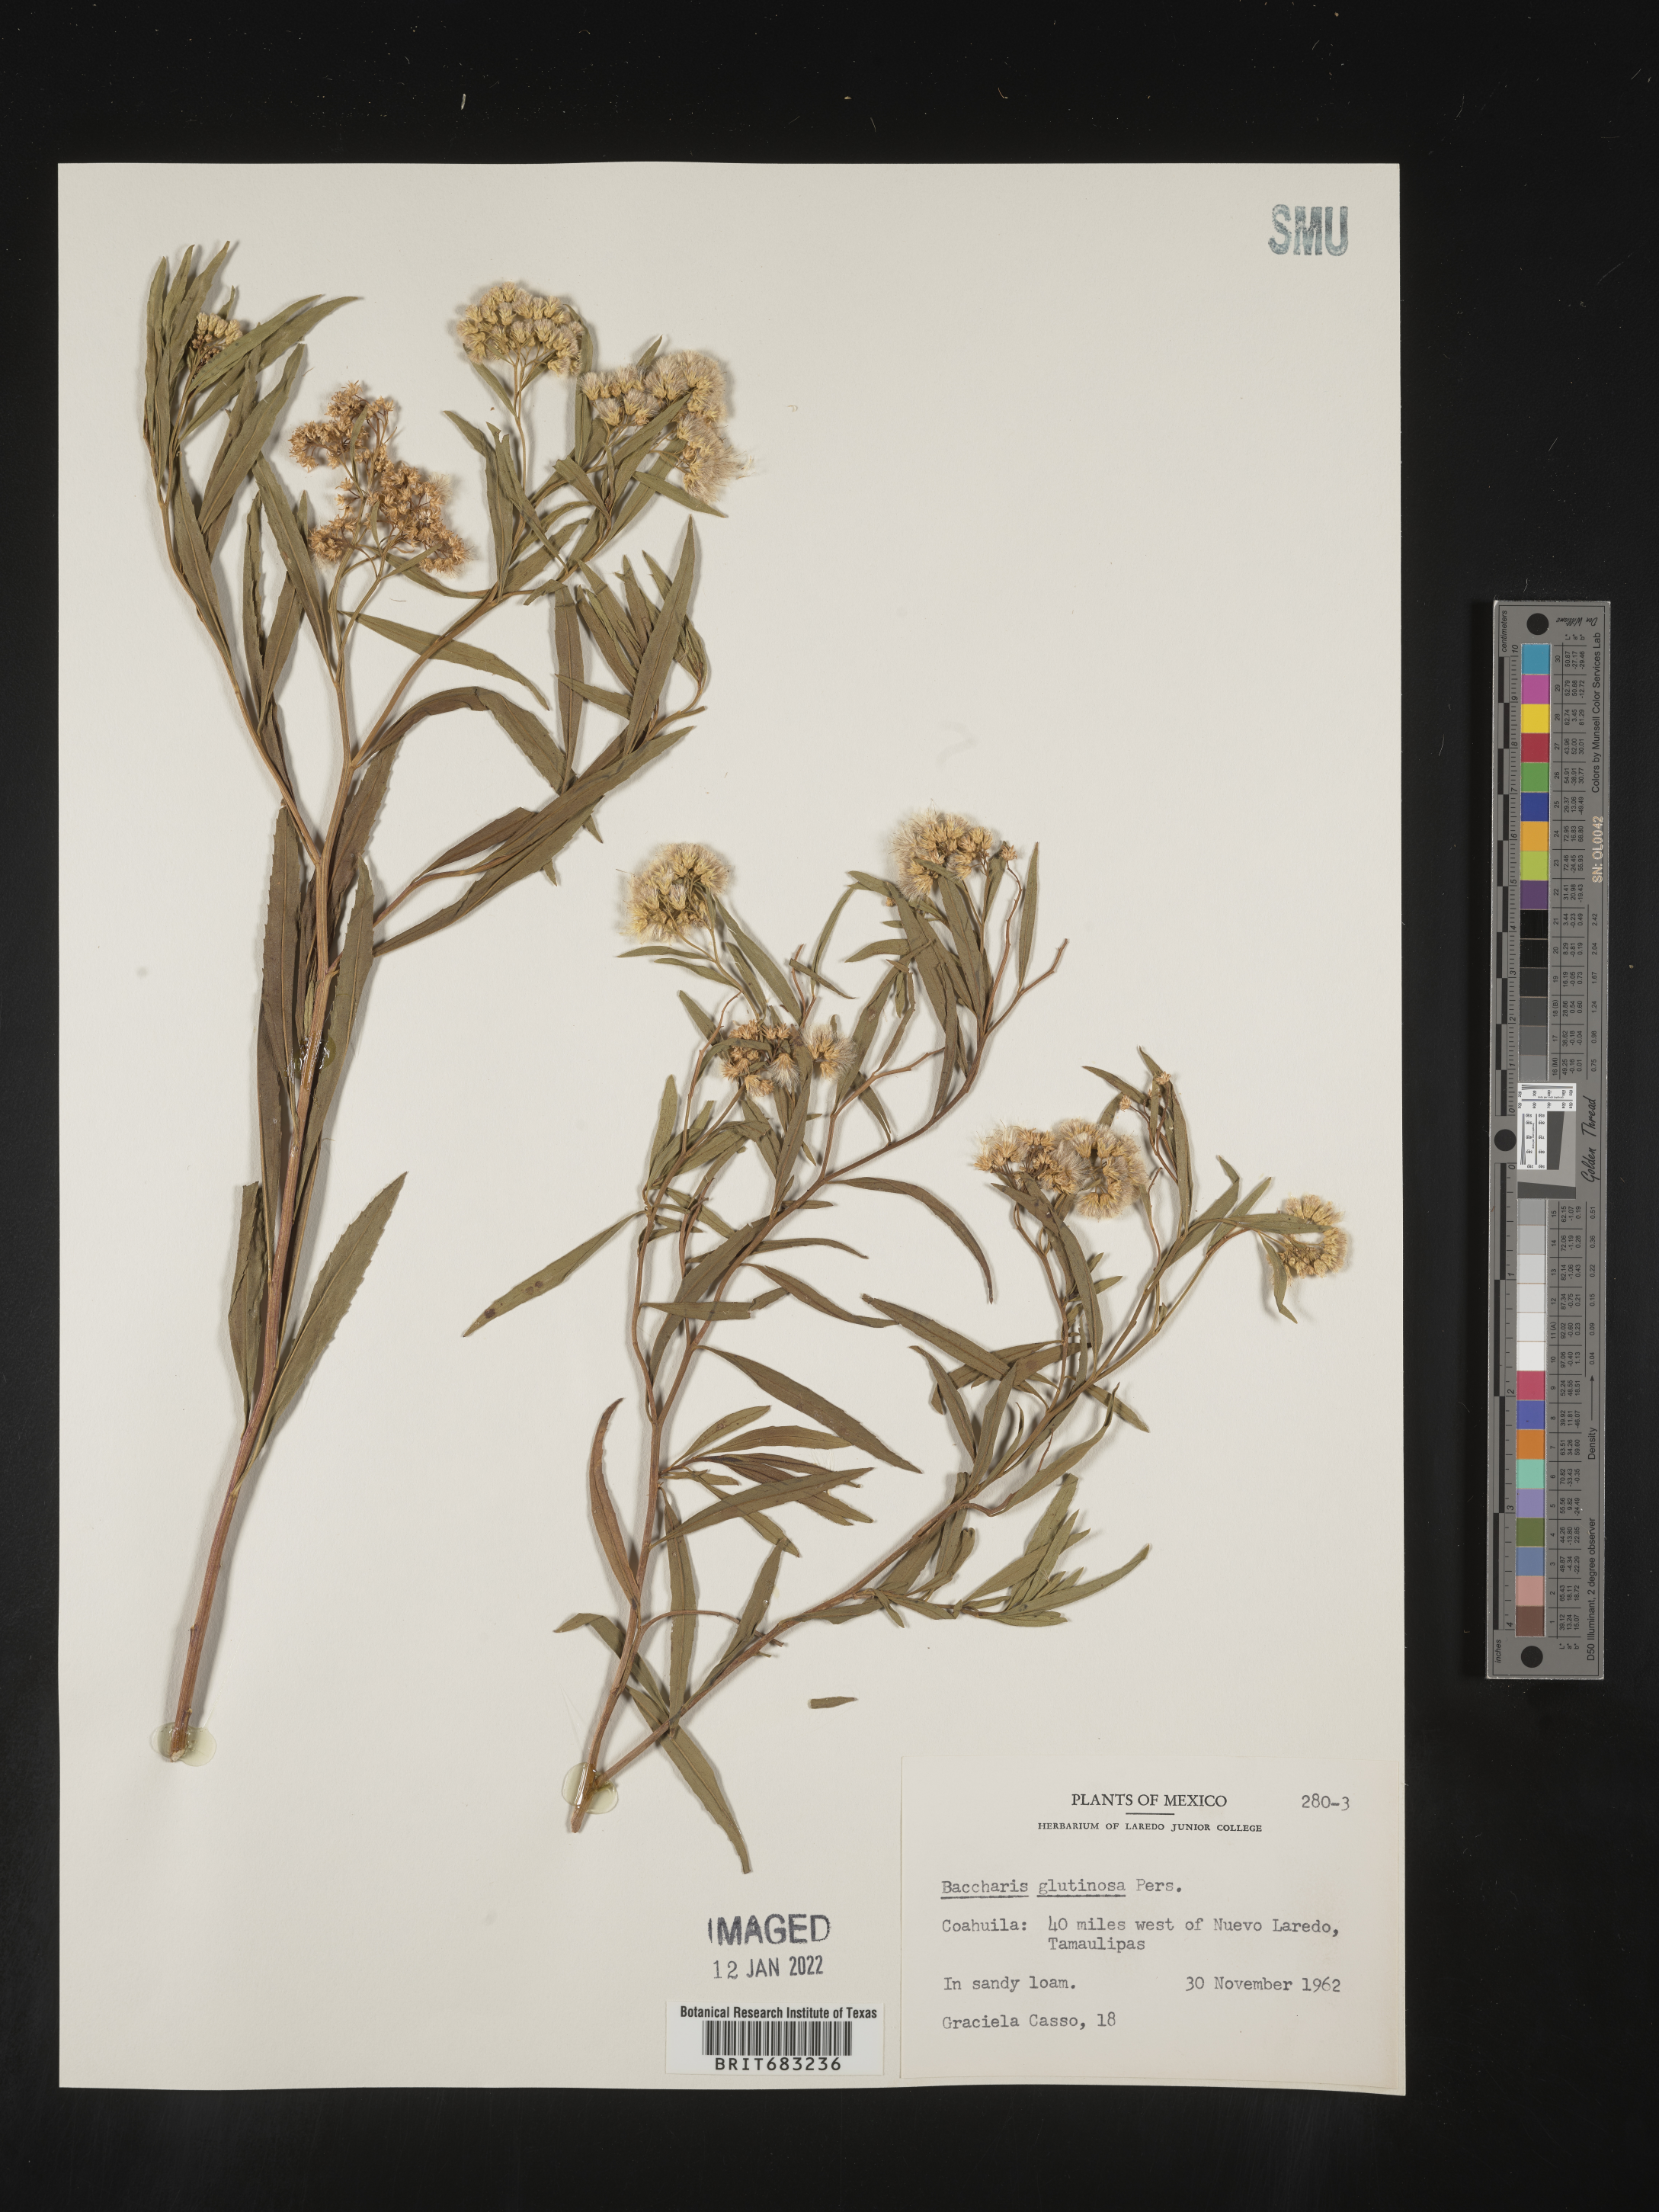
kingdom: Plantae
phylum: Tracheophyta
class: Magnoliopsida
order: Asterales
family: Asteraceae
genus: Baccharis
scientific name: Baccharis salicifolia
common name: Sticky baccharis
